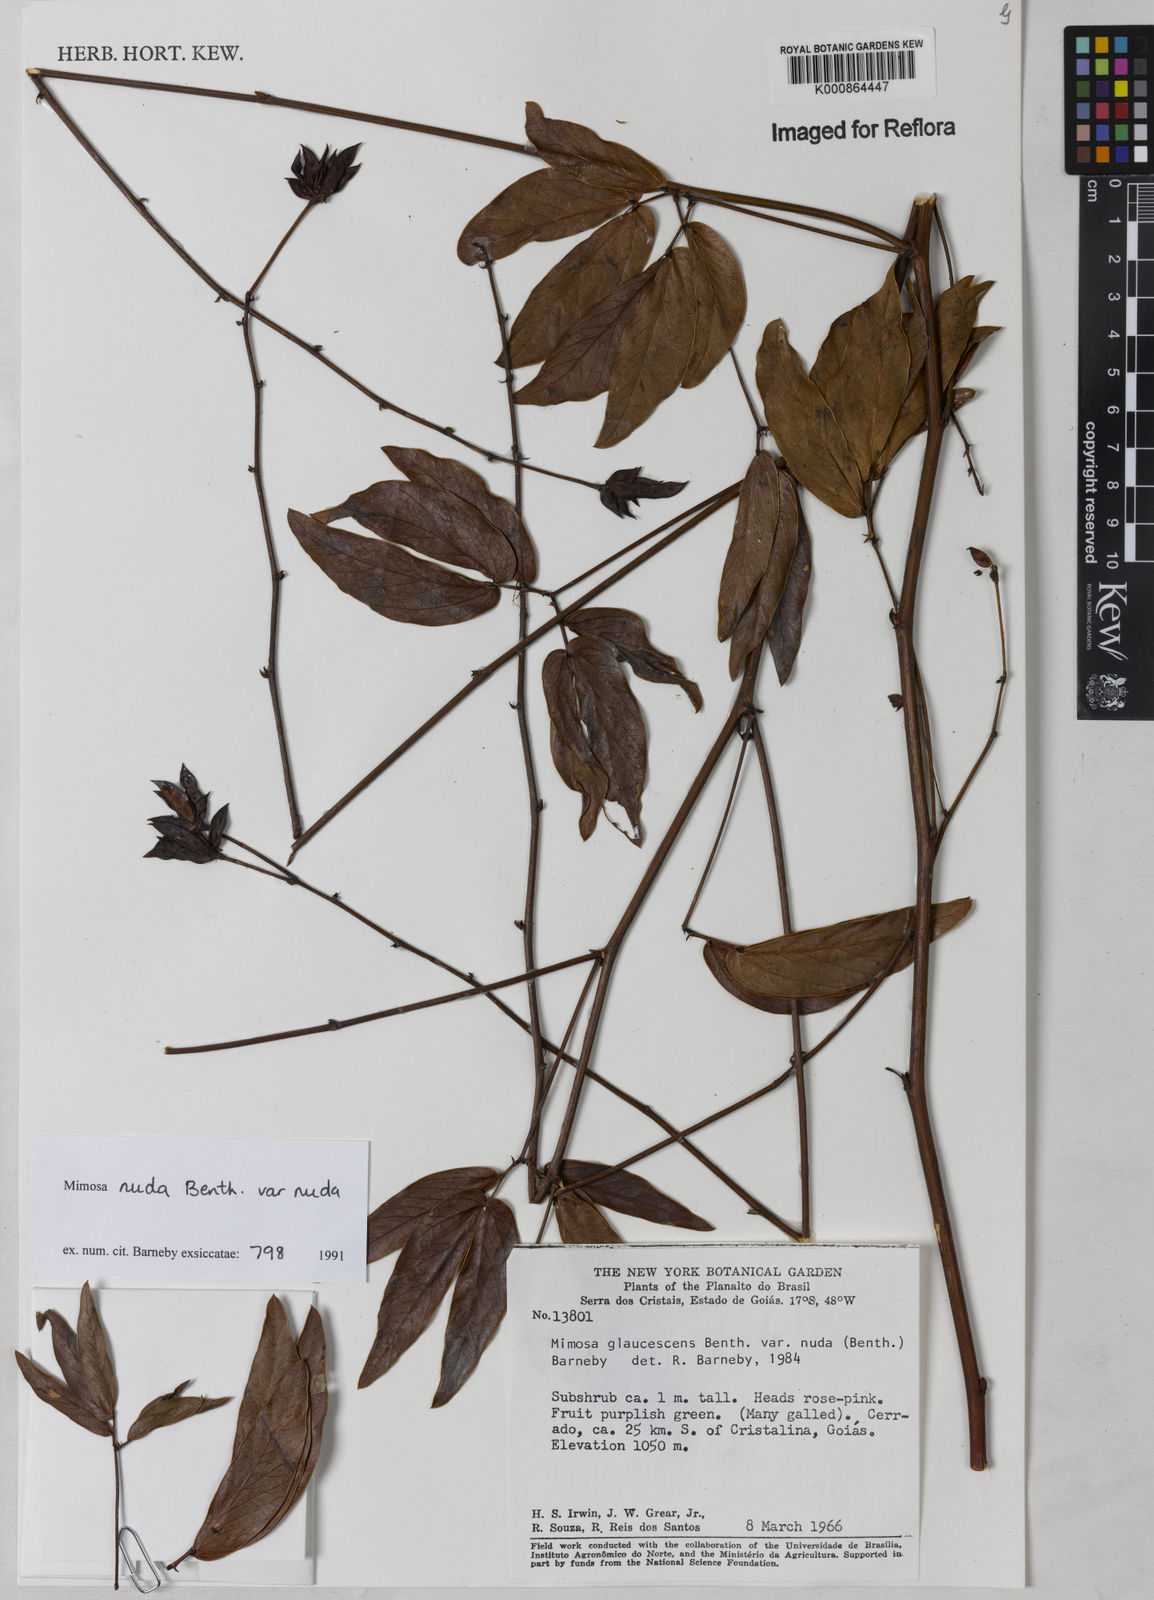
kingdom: Plantae
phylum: Tracheophyta
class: Magnoliopsida
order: Fabales
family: Fabaceae
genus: Mimosa
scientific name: Mimosa debilis
